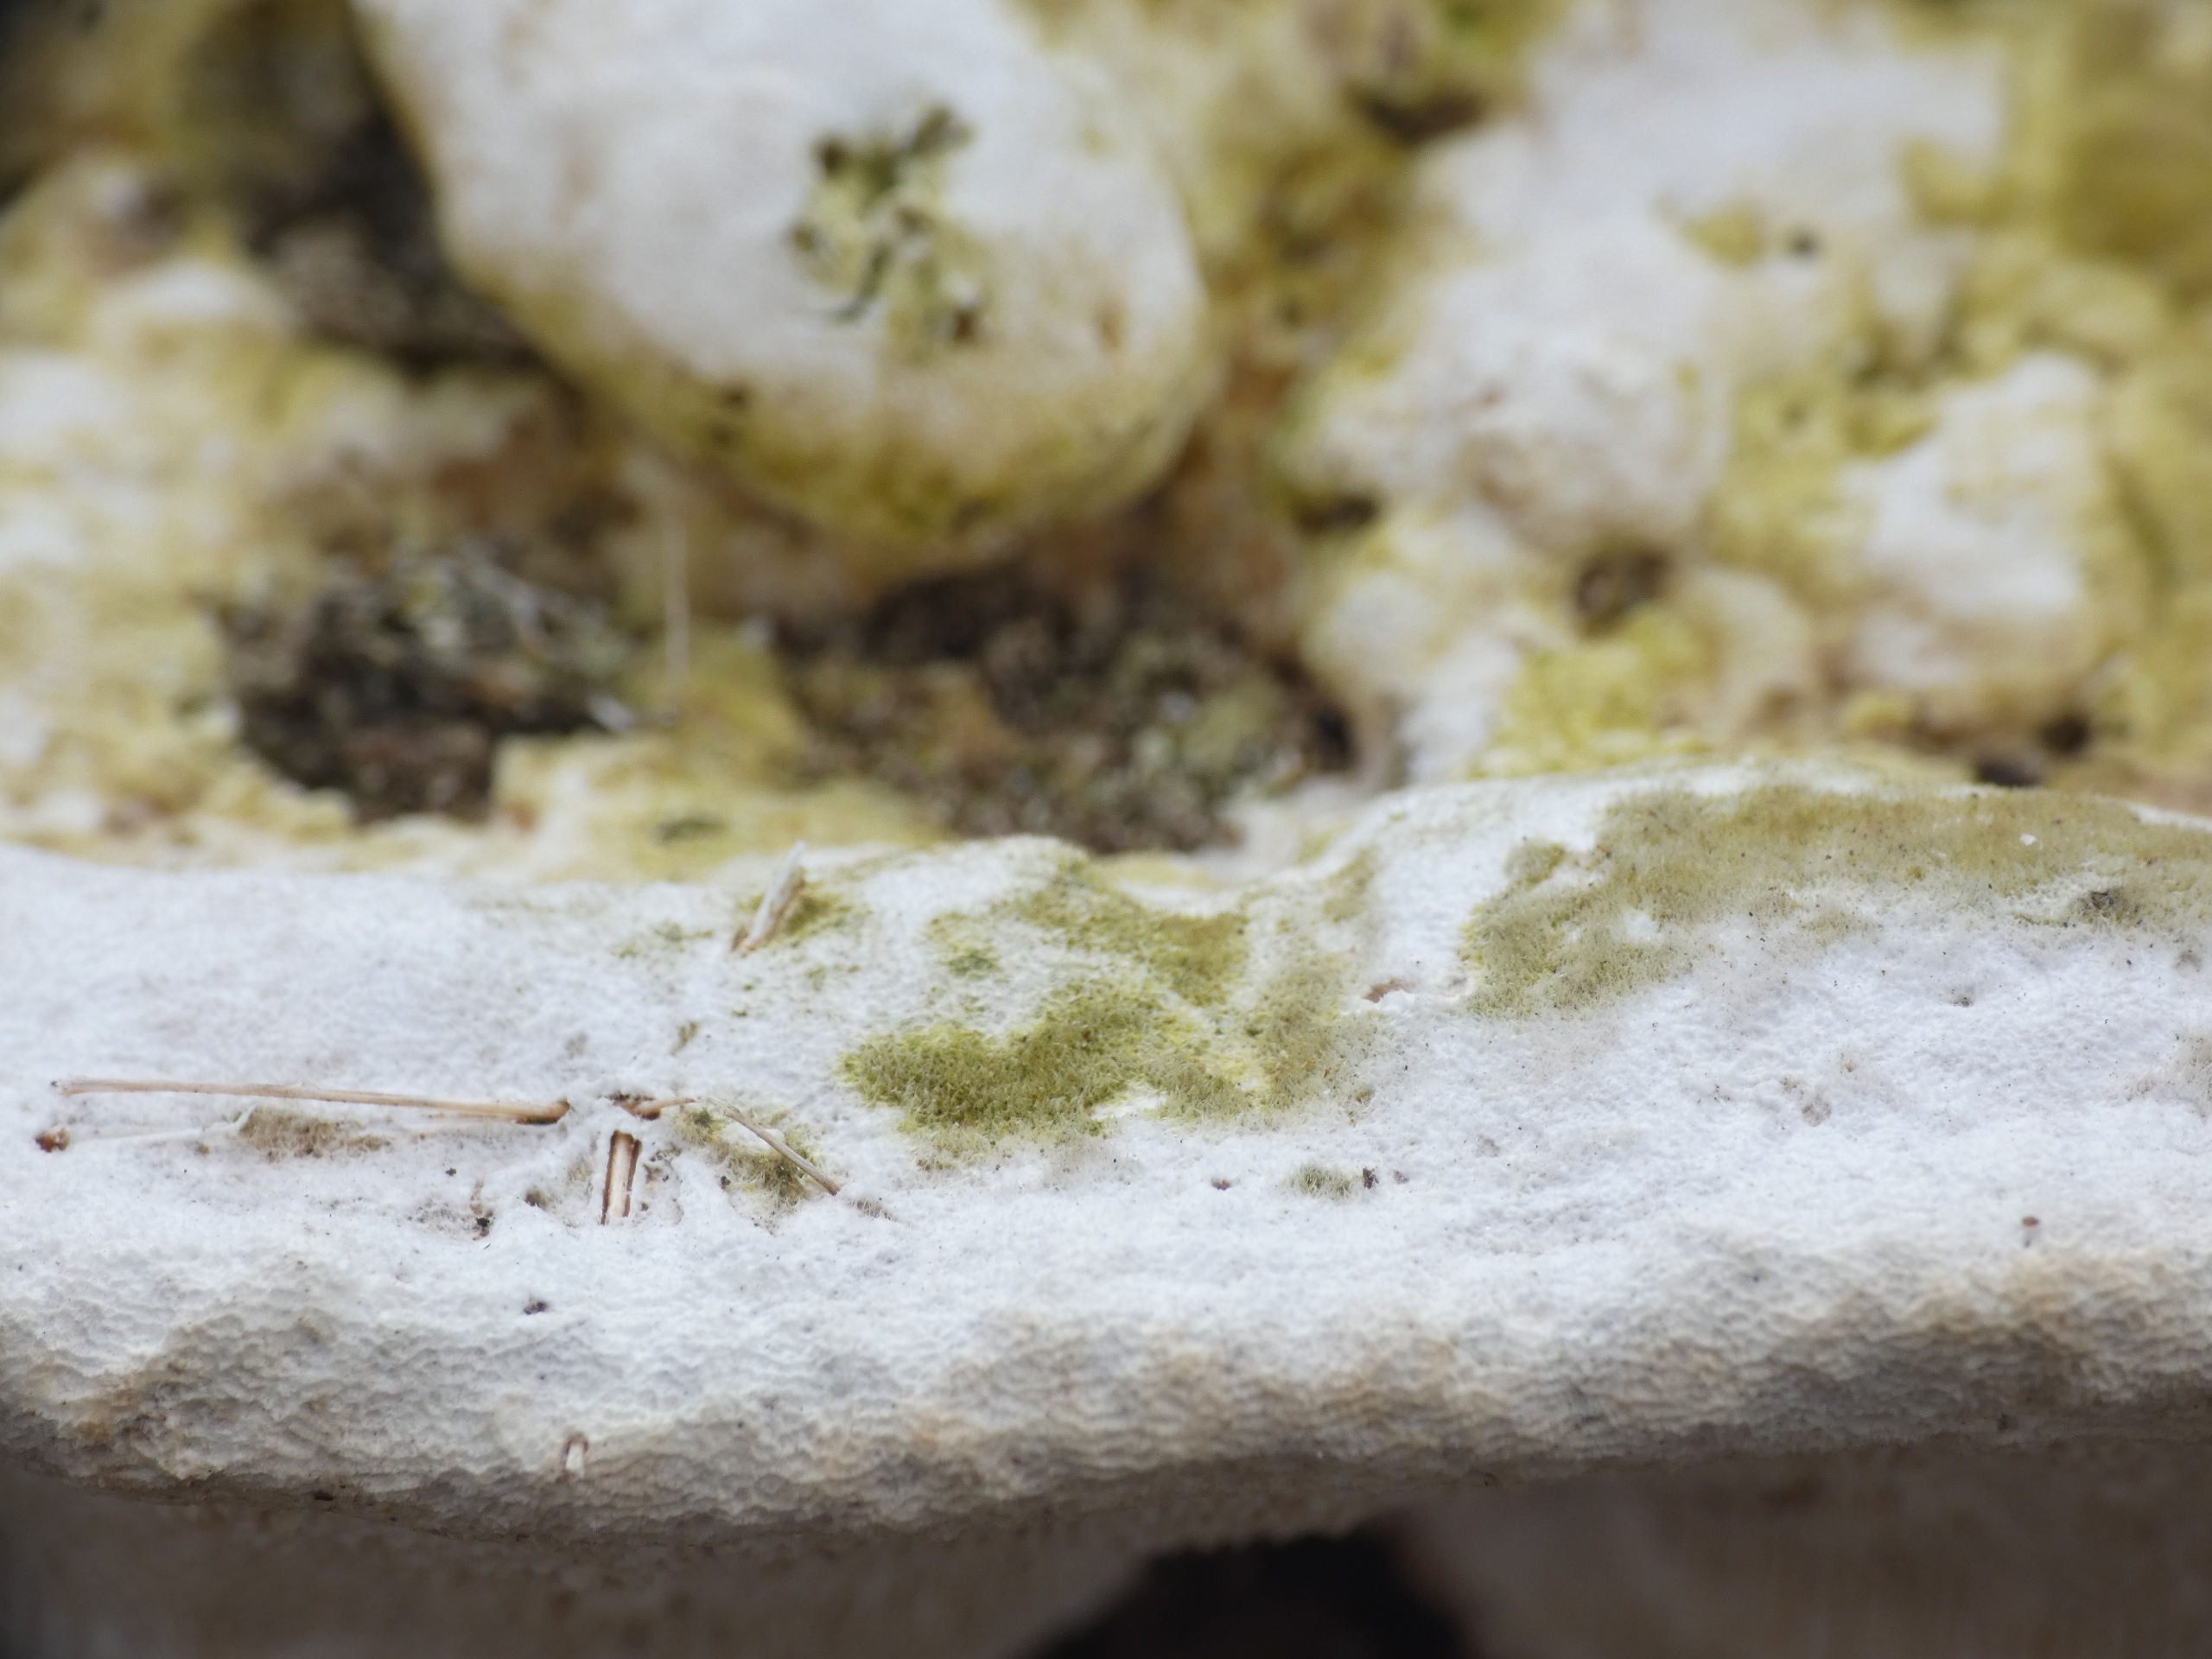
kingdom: Fungi
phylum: Basidiomycota
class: Agaricomycetes
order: Polyporales
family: Polyporaceae
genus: Trametes
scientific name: Trametes gibbosa
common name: Puklet læderporesvamp
